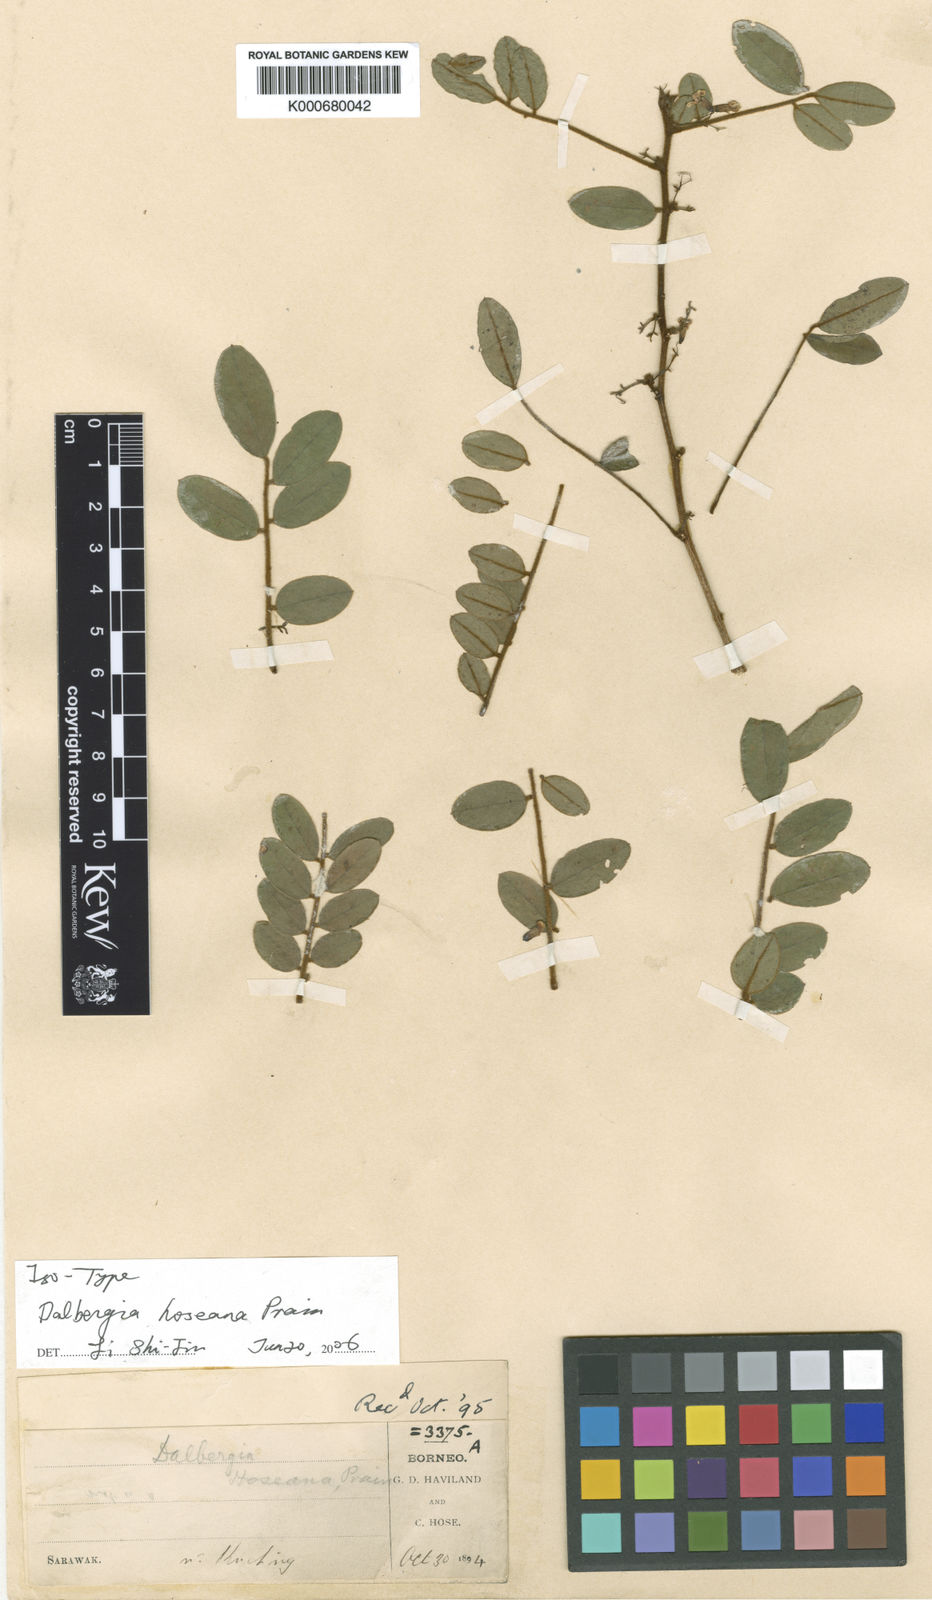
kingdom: Plantae
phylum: Tracheophyta
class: Magnoliopsida
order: Fabales
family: Fabaceae
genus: Dalbergia
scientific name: Dalbergia velutina
